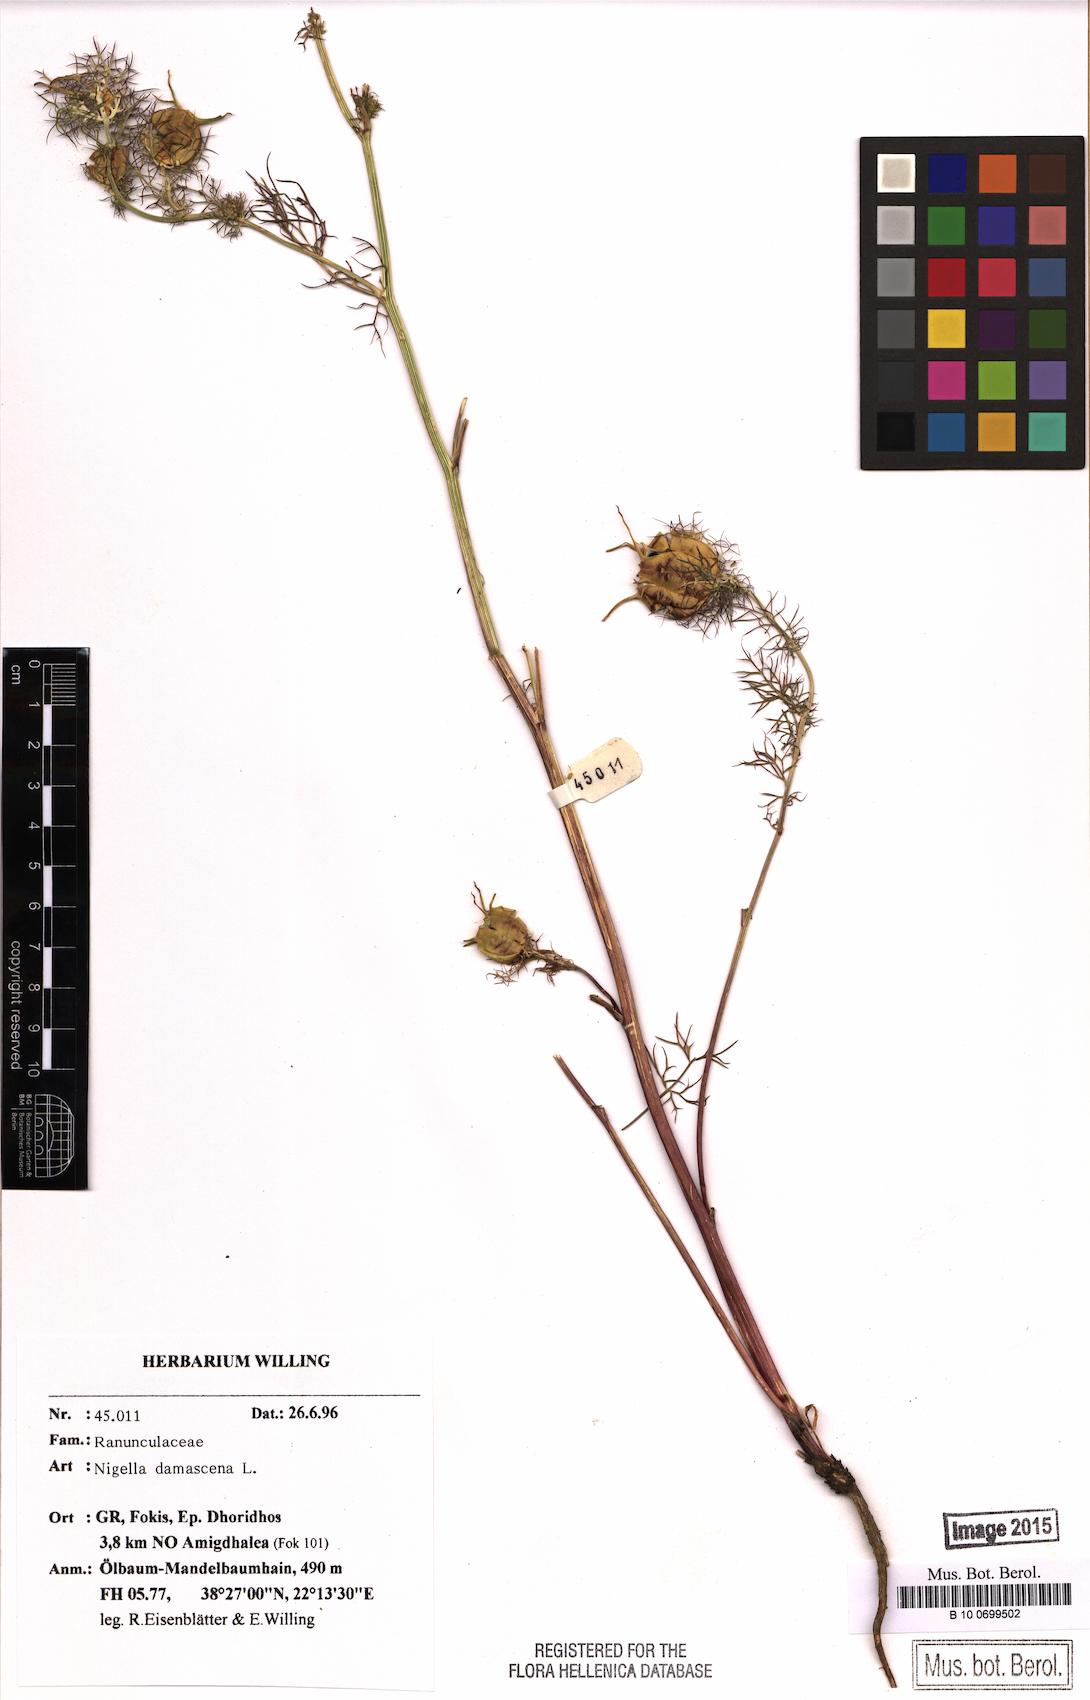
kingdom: Plantae
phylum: Tracheophyta
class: Magnoliopsida
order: Ranunculales
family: Ranunculaceae
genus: Nigella
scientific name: Nigella damascena
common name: Love-in-a-mist
